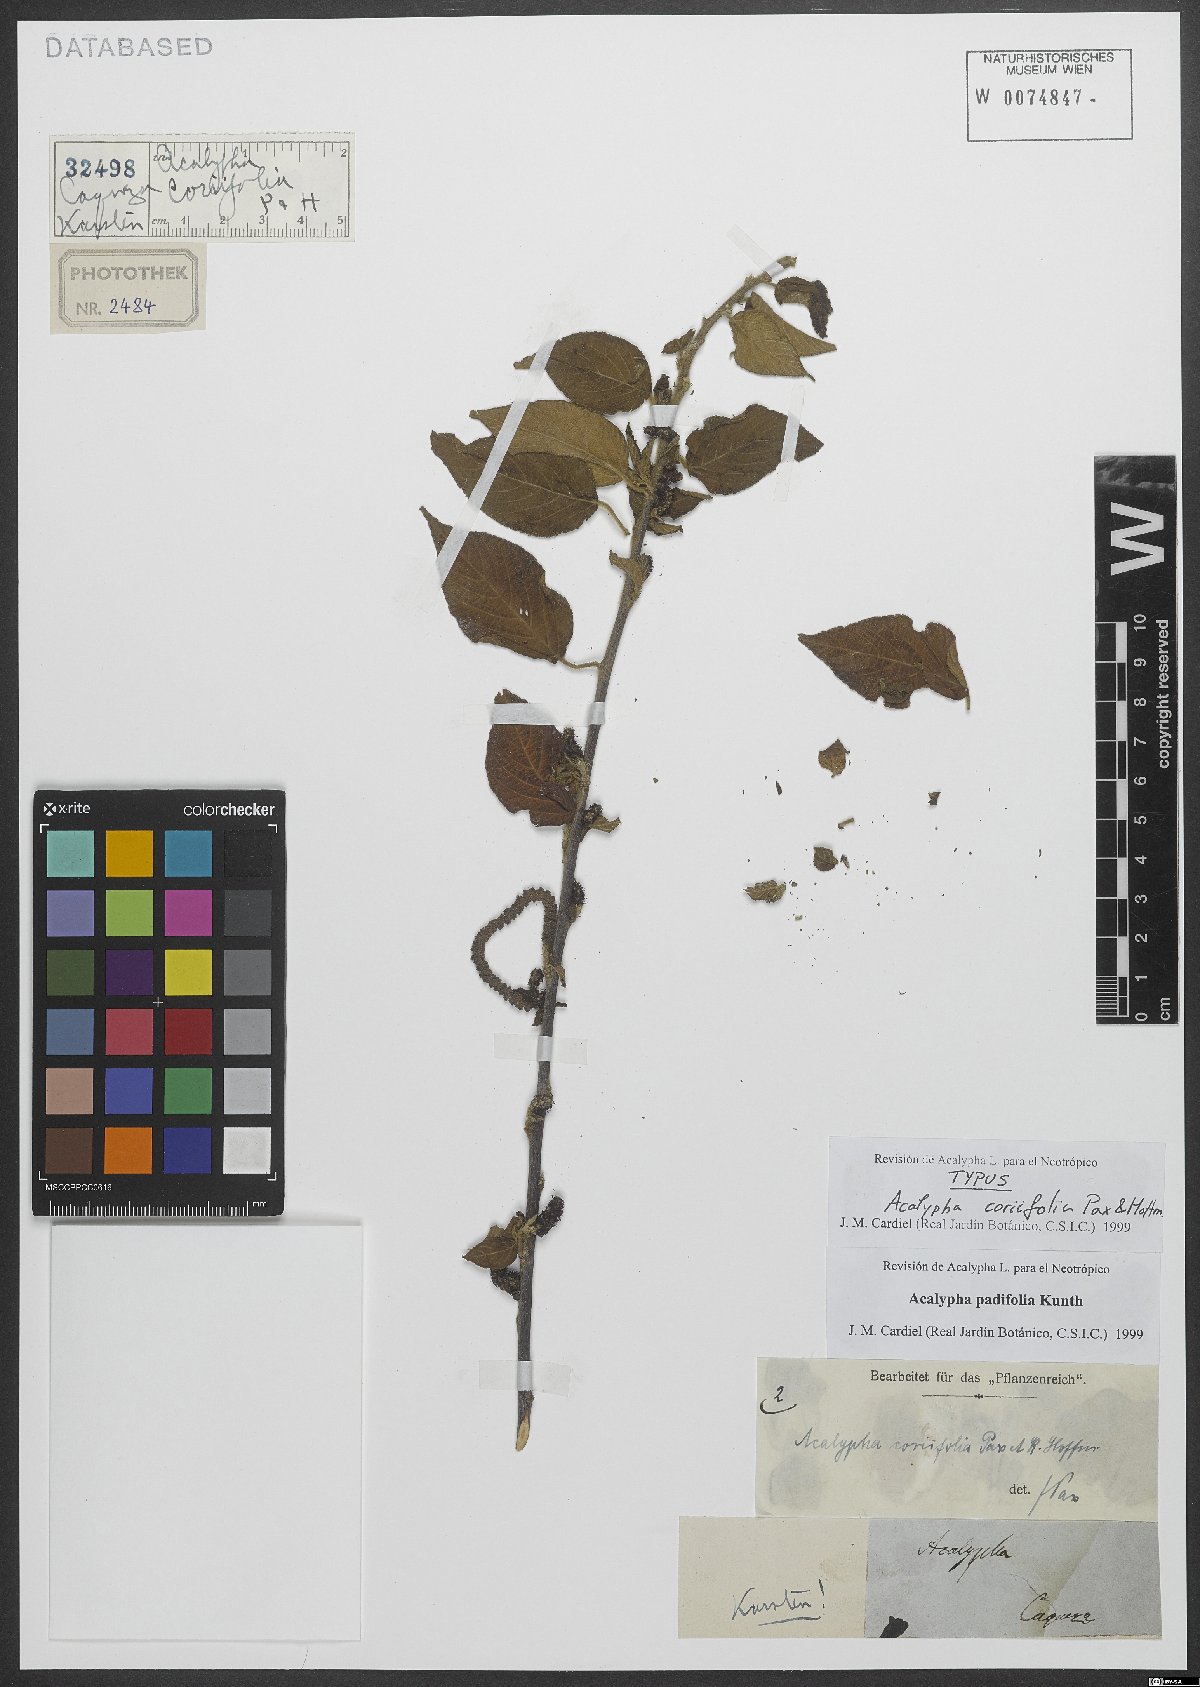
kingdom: Plantae
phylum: Tracheophyta
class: Magnoliopsida
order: Malpighiales
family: Euphorbiaceae
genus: Acalypha
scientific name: Acalypha padifolia
